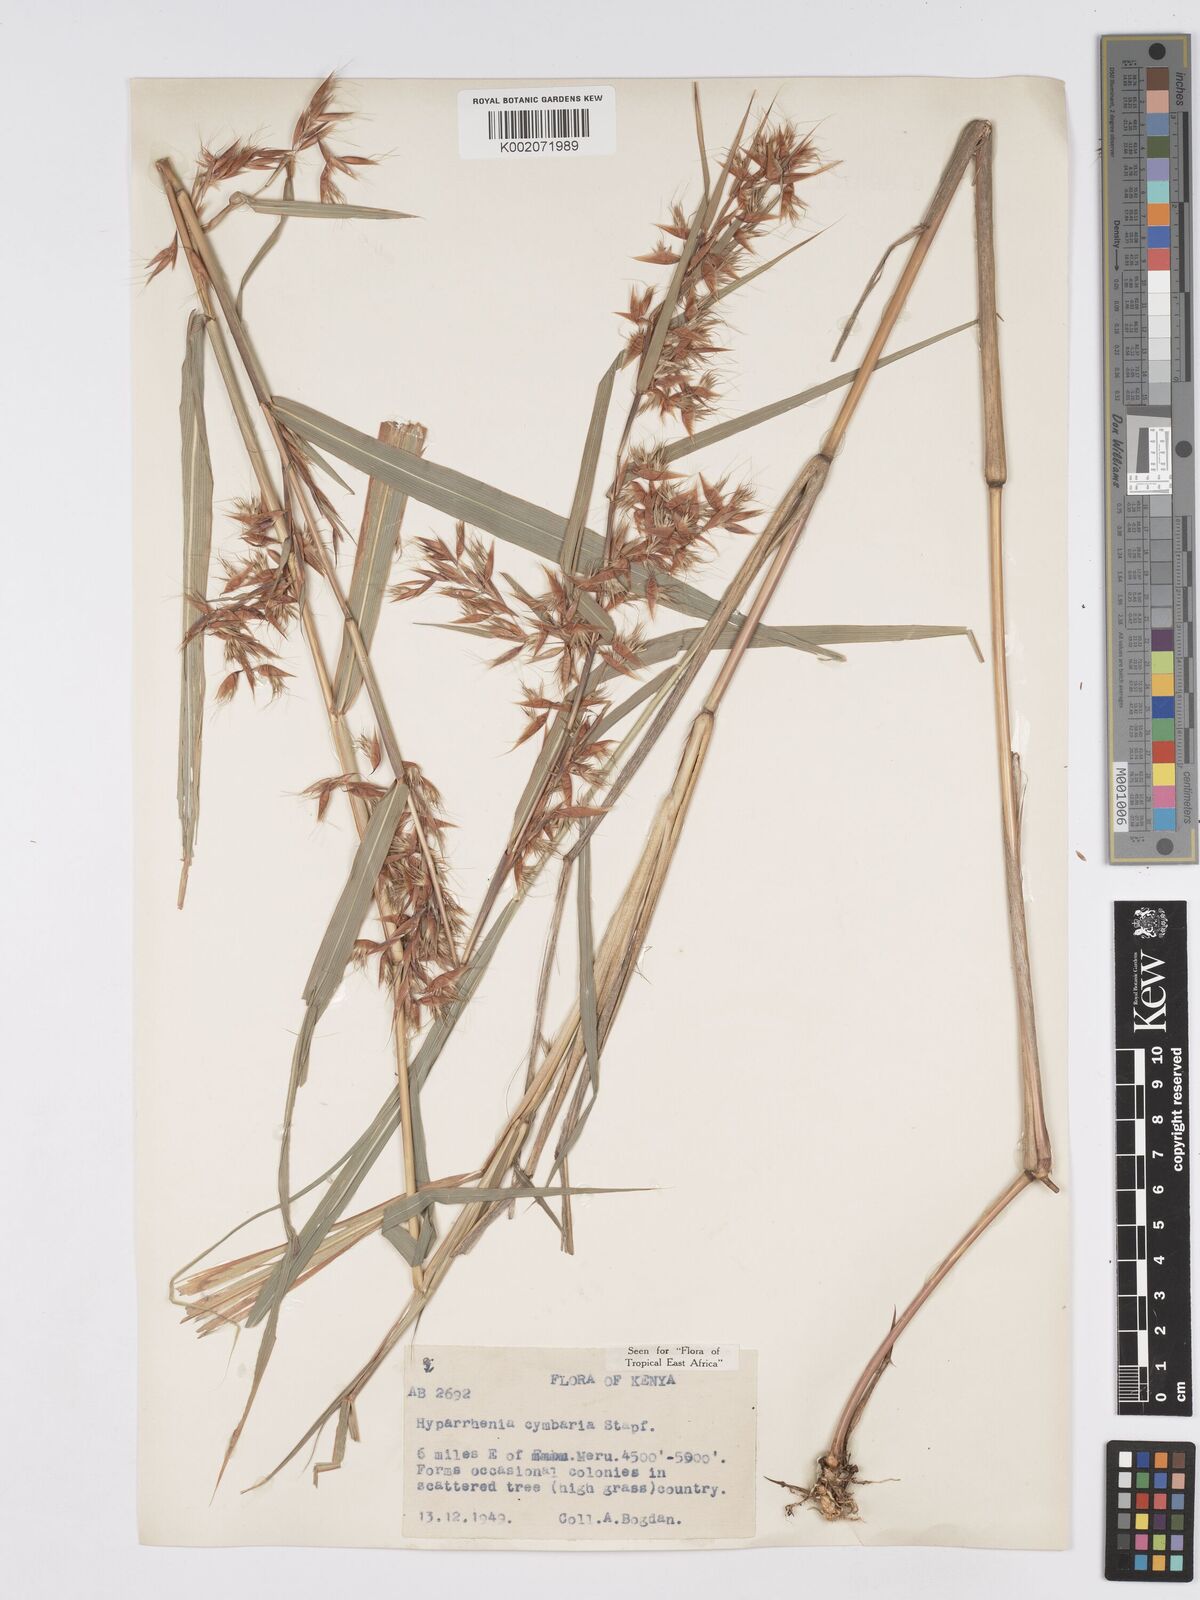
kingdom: Plantae
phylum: Tracheophyta
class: Liliopsida
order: Poales
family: Poaceae
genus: Hyparrhenia
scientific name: Hyparrhenia cymbaria
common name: Boat thatching grass
